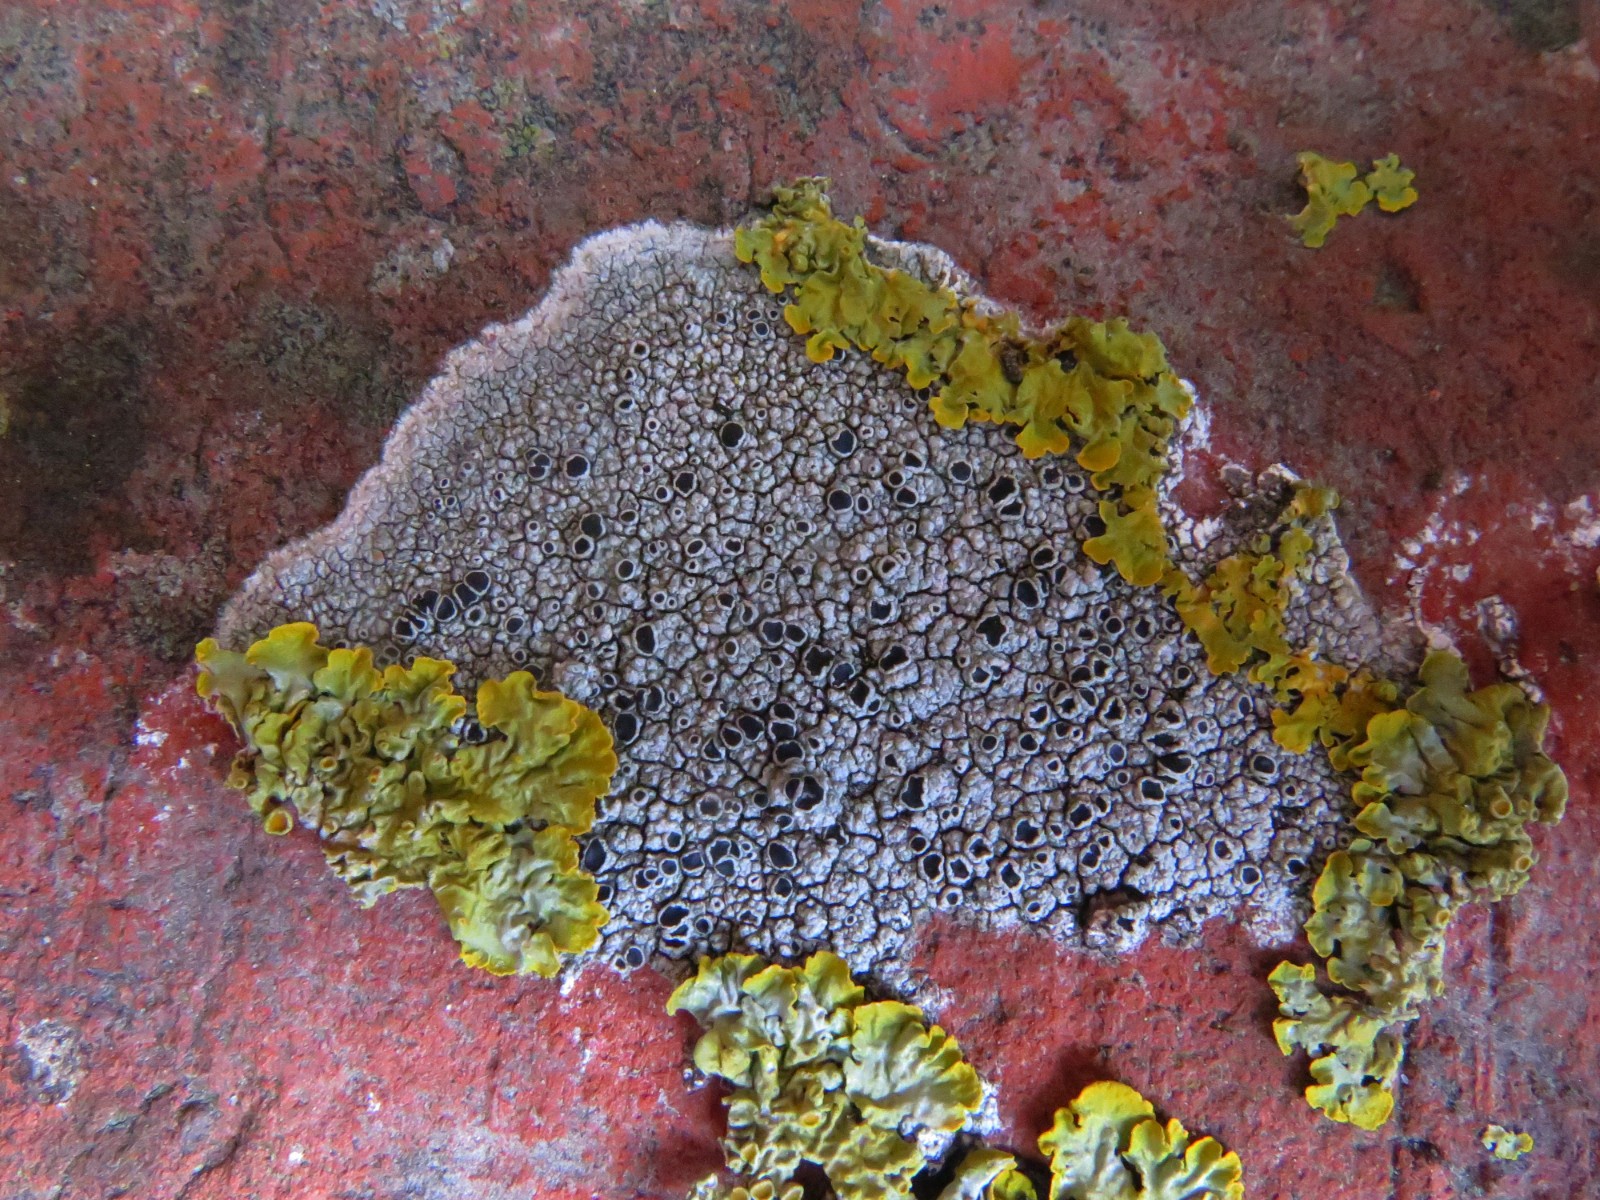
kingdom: Fungi
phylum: Ascomycota
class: Lecanoromycetes
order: Lecanorales
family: Tephromelataceae
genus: Tephromela
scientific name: Tephromela atra
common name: sortfrugtet kantskivelav
